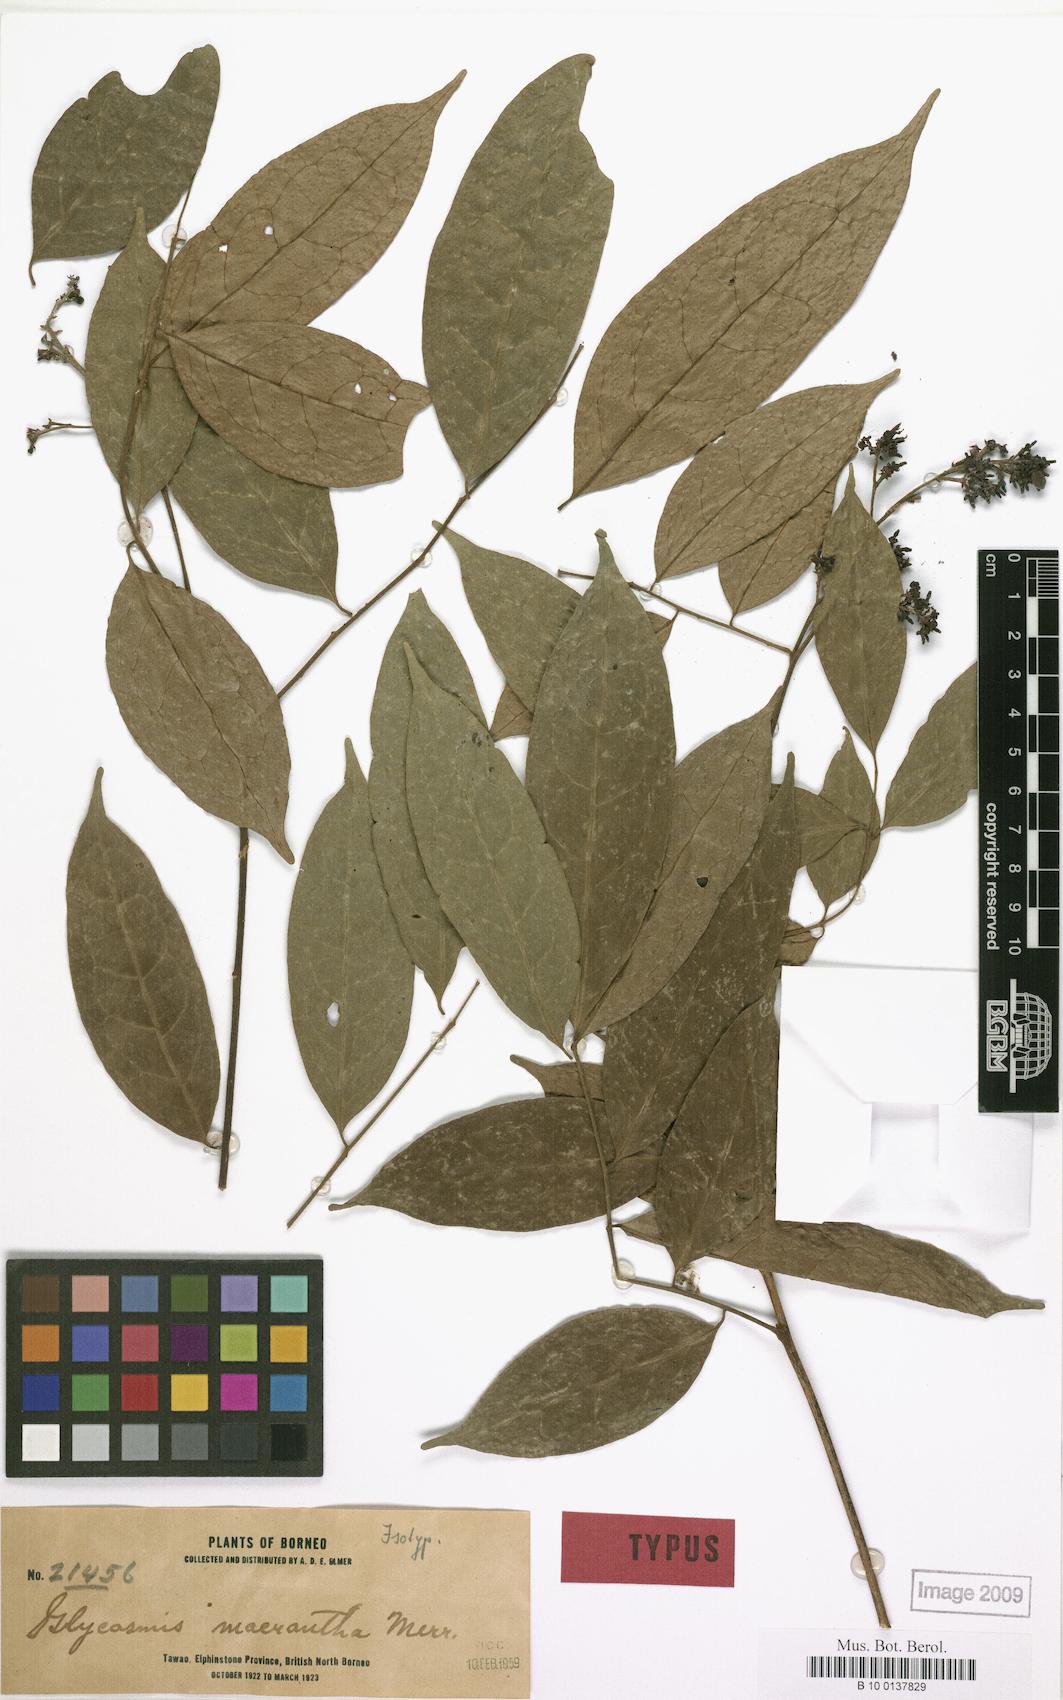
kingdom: Plantae
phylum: Tracheophyta
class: Magnoliopsida
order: Sapindales
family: Rutaceae
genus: Glycosmis
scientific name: Glycosmis macrantha
